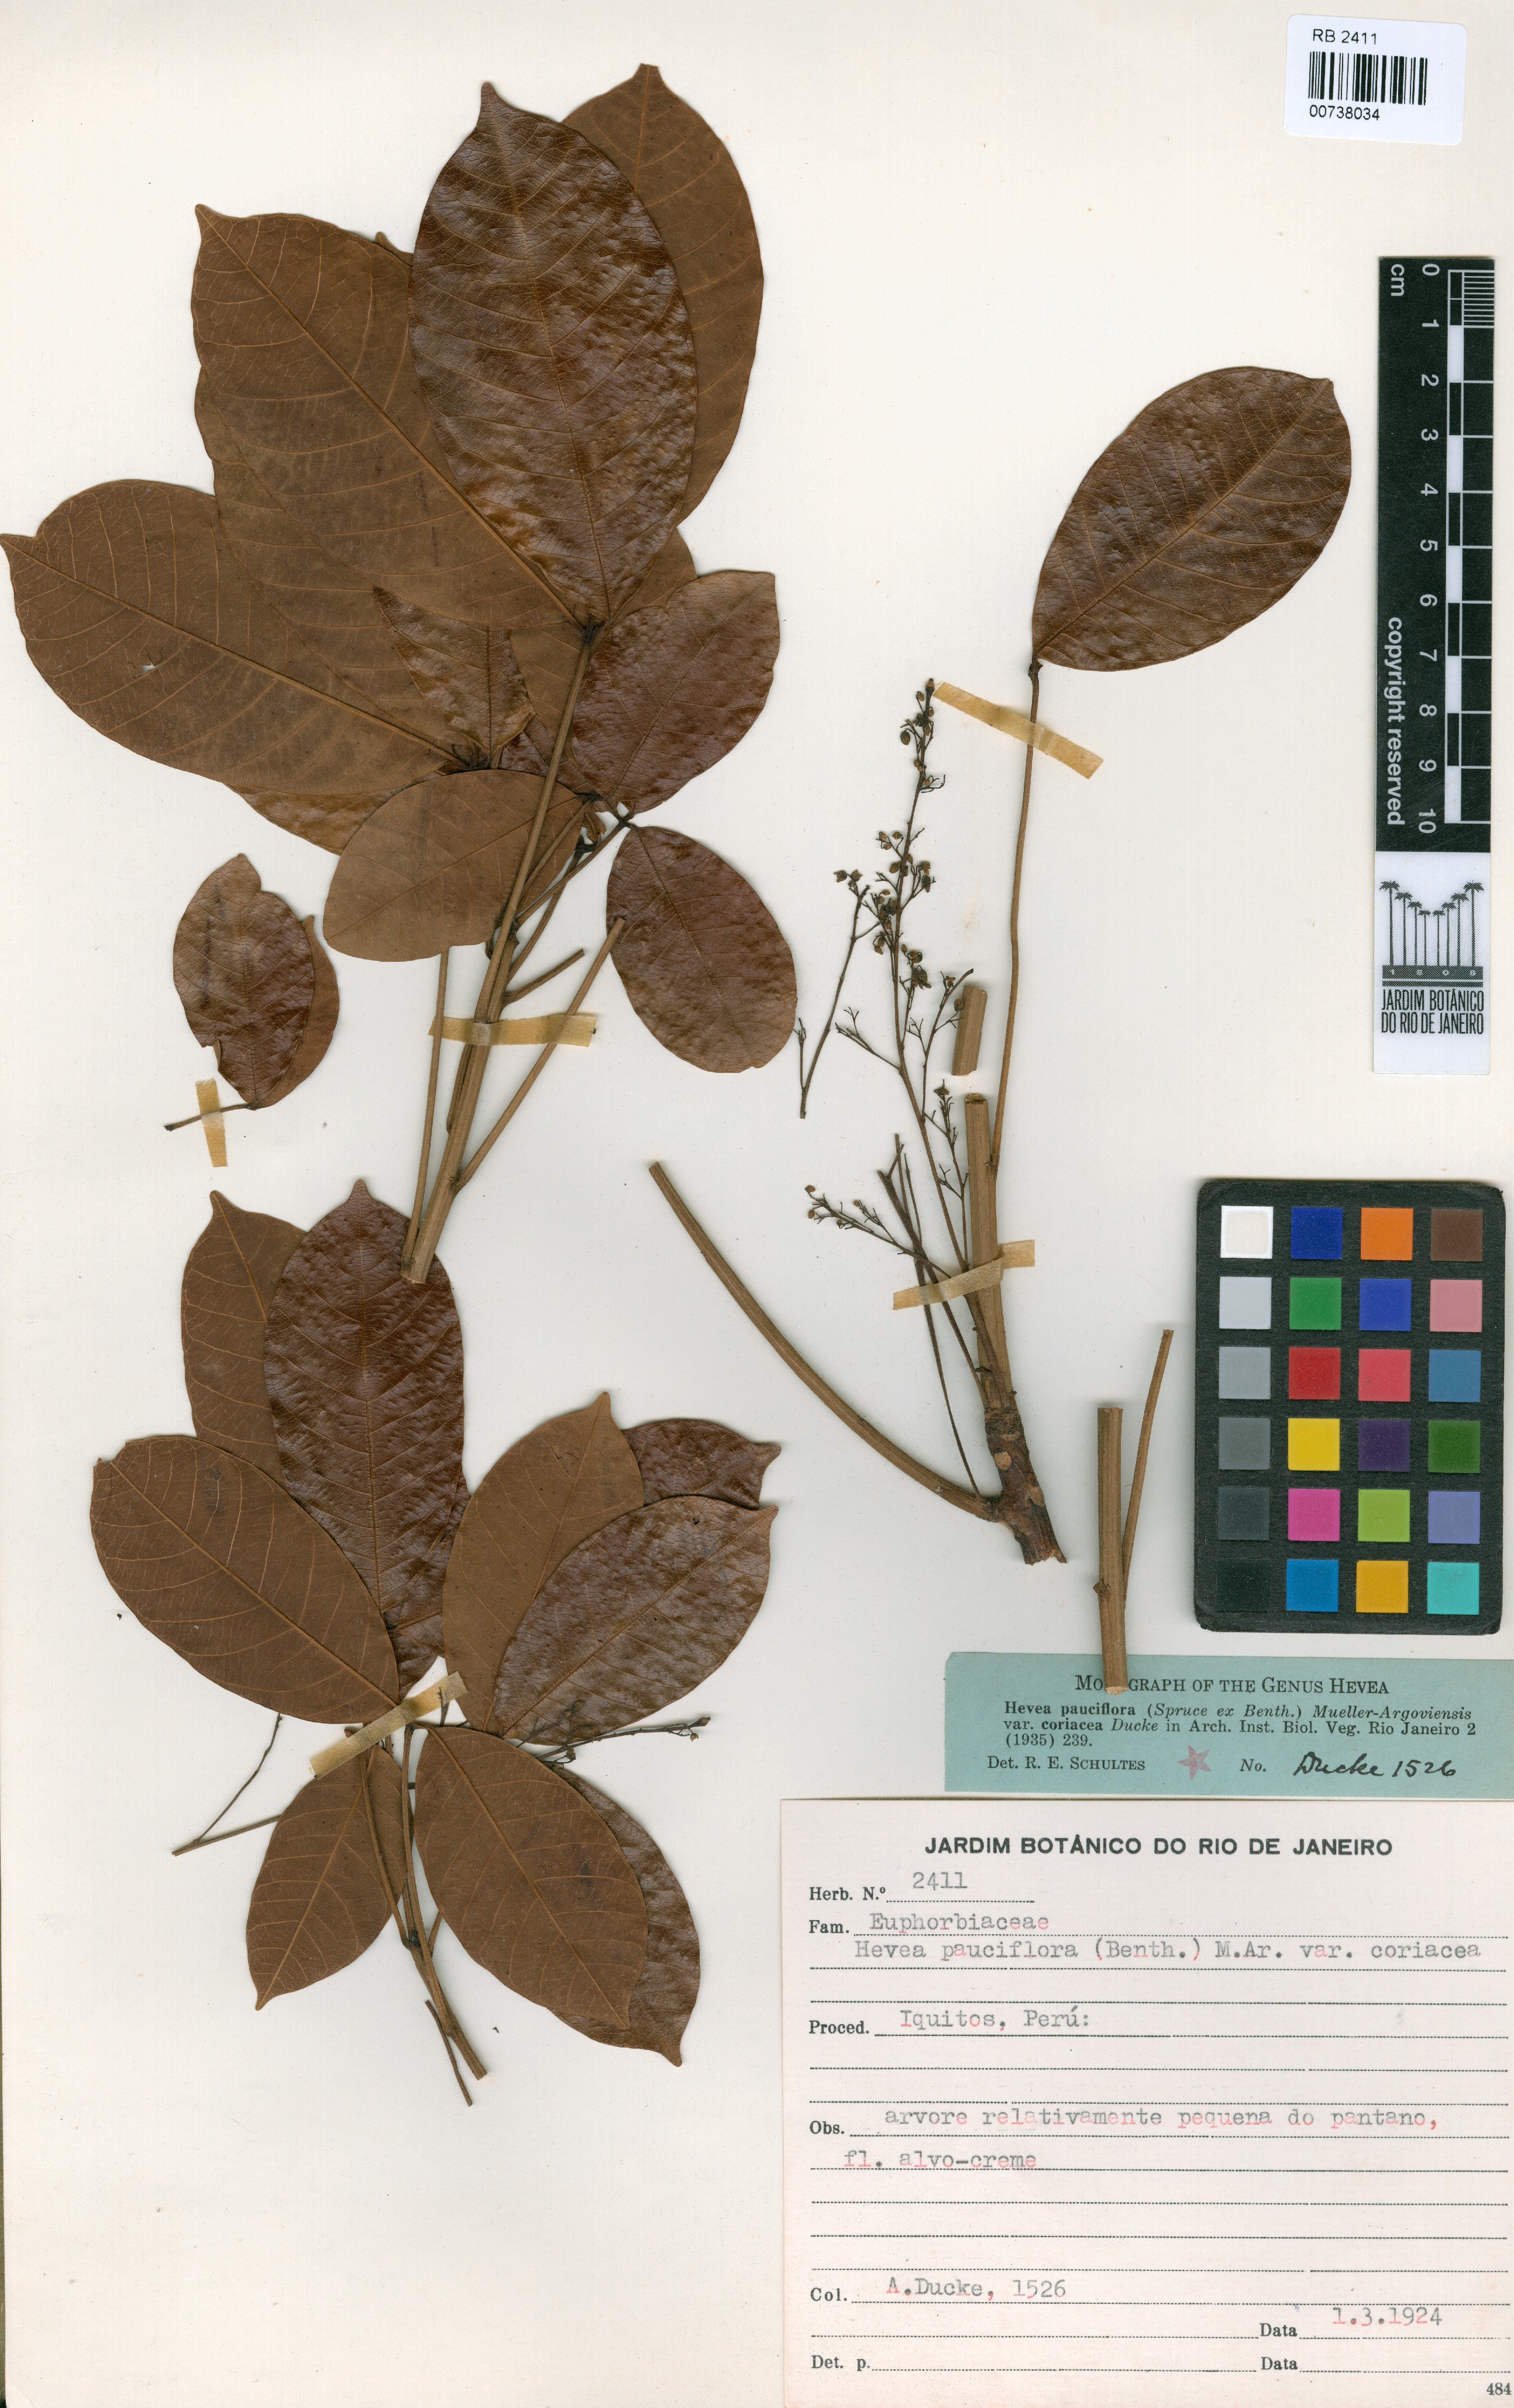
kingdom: Plantae
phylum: Tracheophyta
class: Magnoliopsida
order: Malpighiales
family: Euphorbiaceae
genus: Hevea
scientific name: Hevea pauciflora
